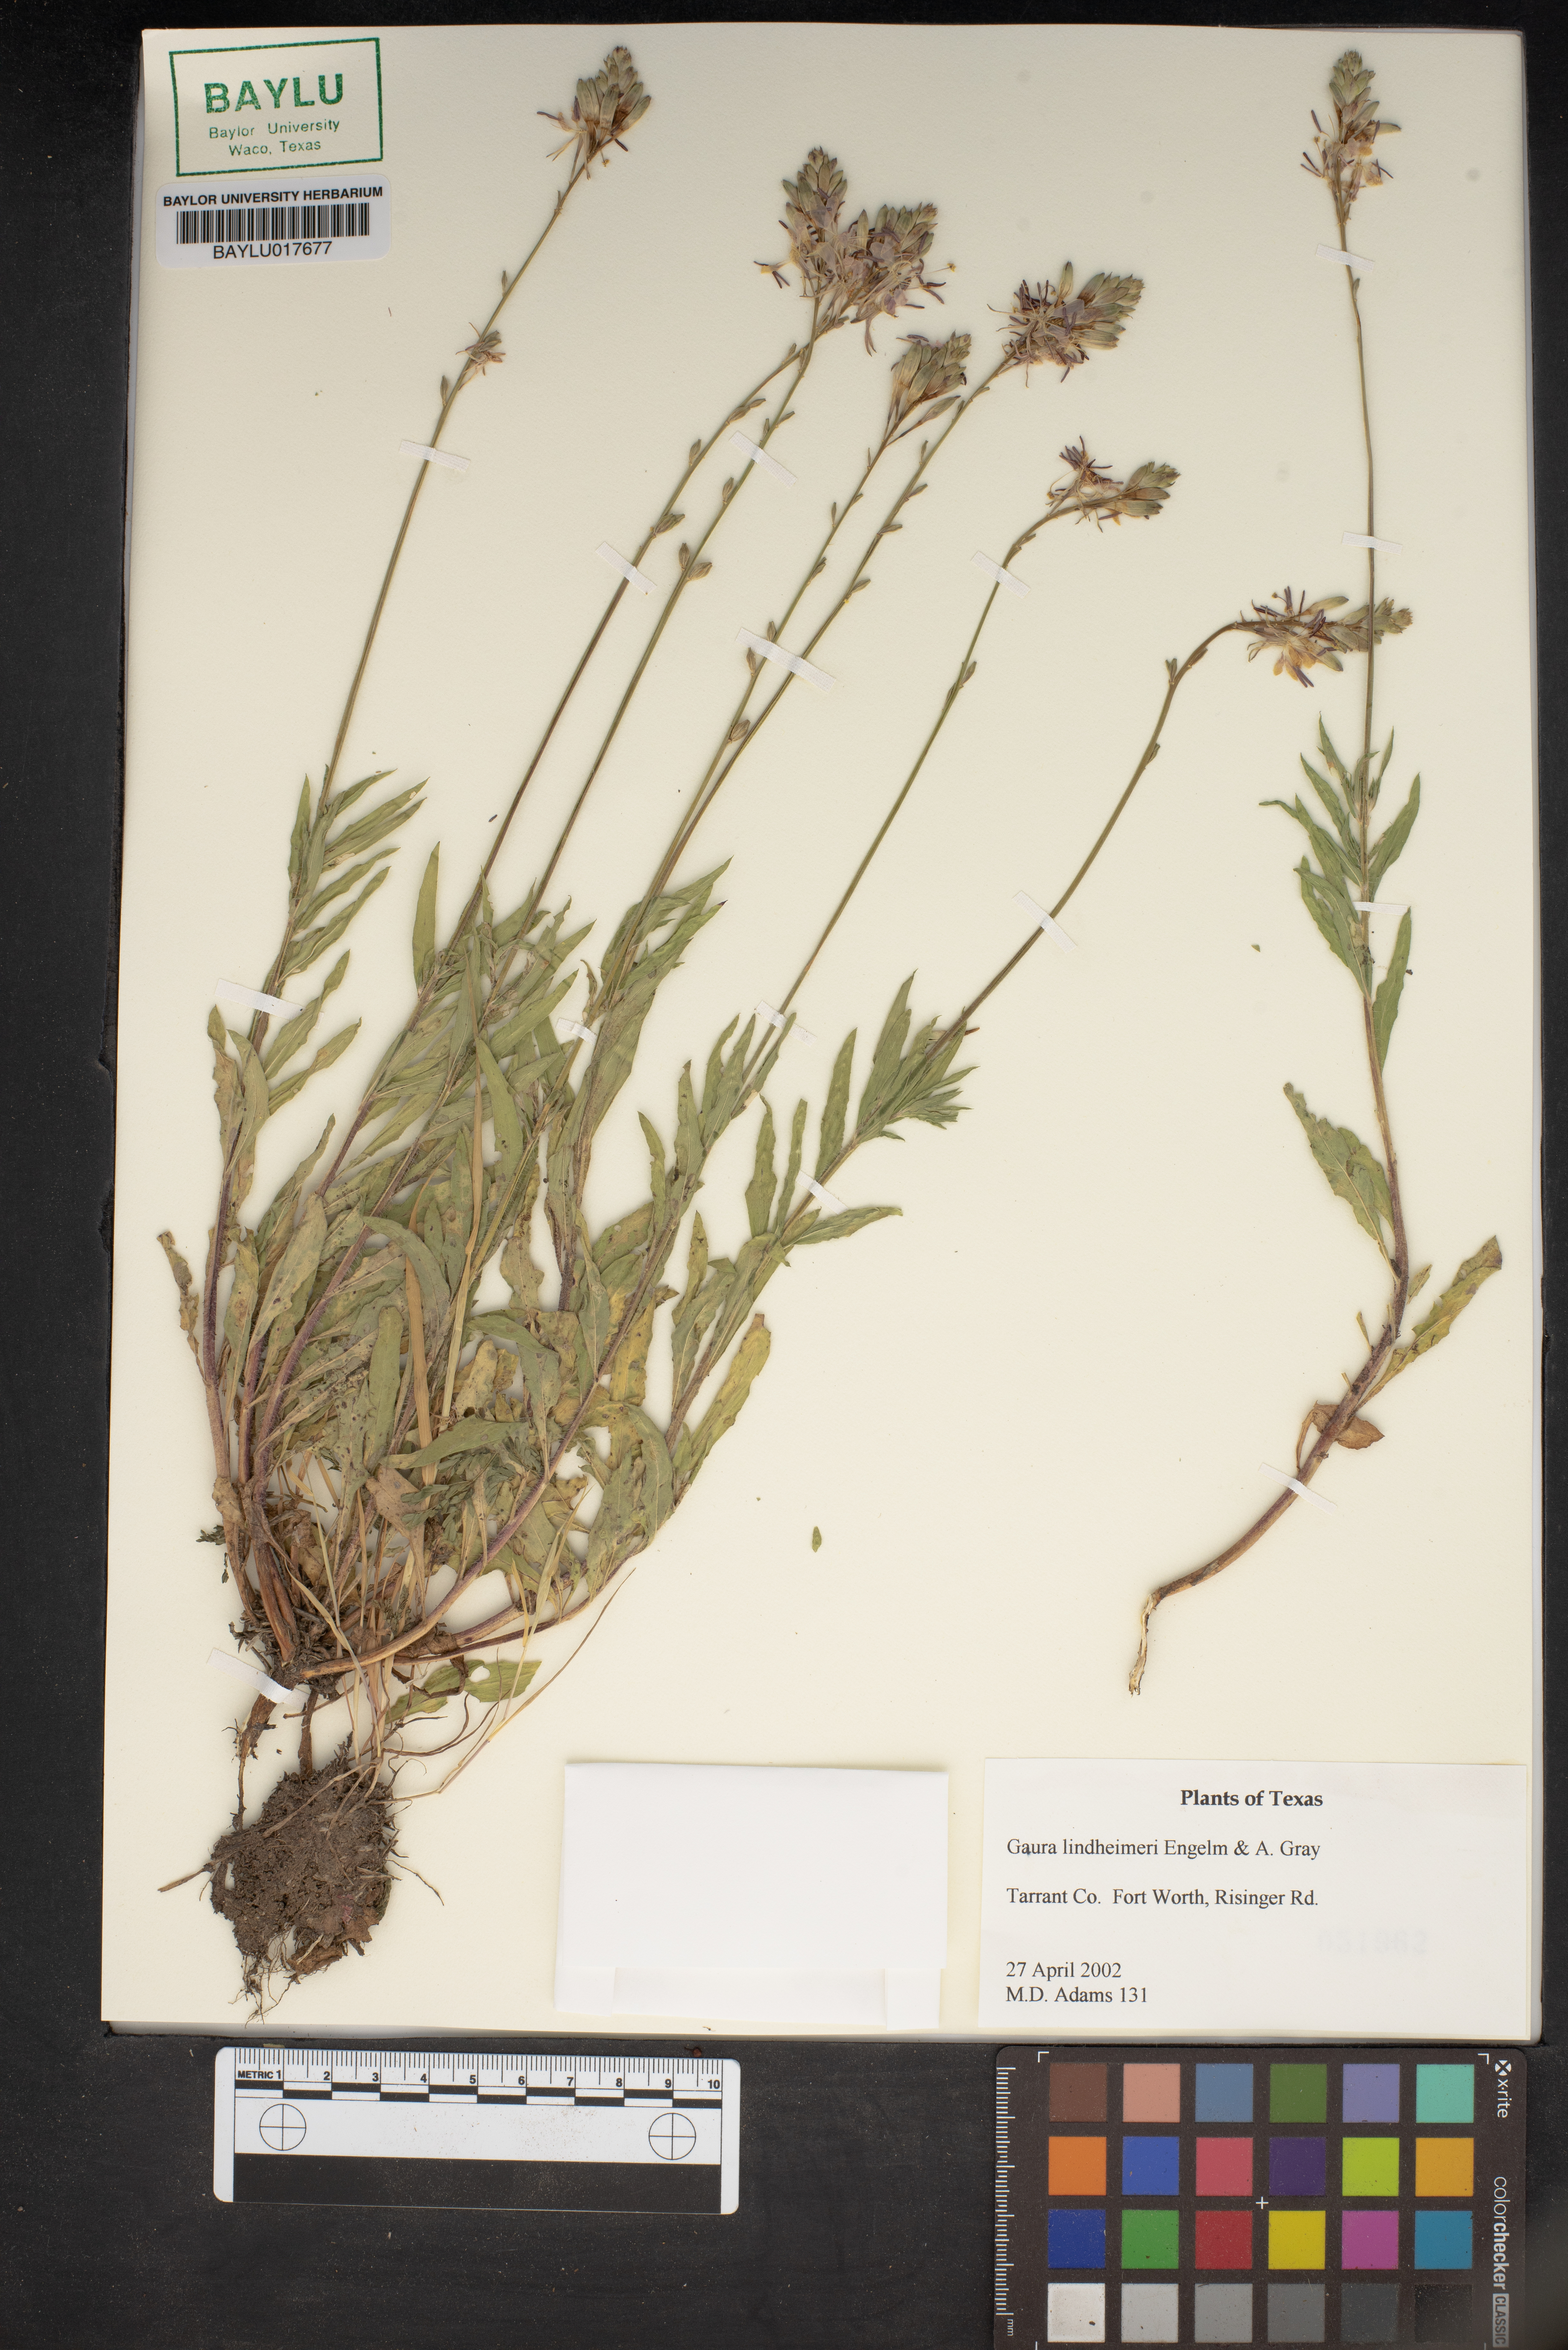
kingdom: Plantae
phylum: Tracheophyta
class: Magnoliopsida
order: Myrtales
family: Onagraceae
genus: Oenothera
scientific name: Oenothera lindheimeri
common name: Lindheimer's beeblossom
